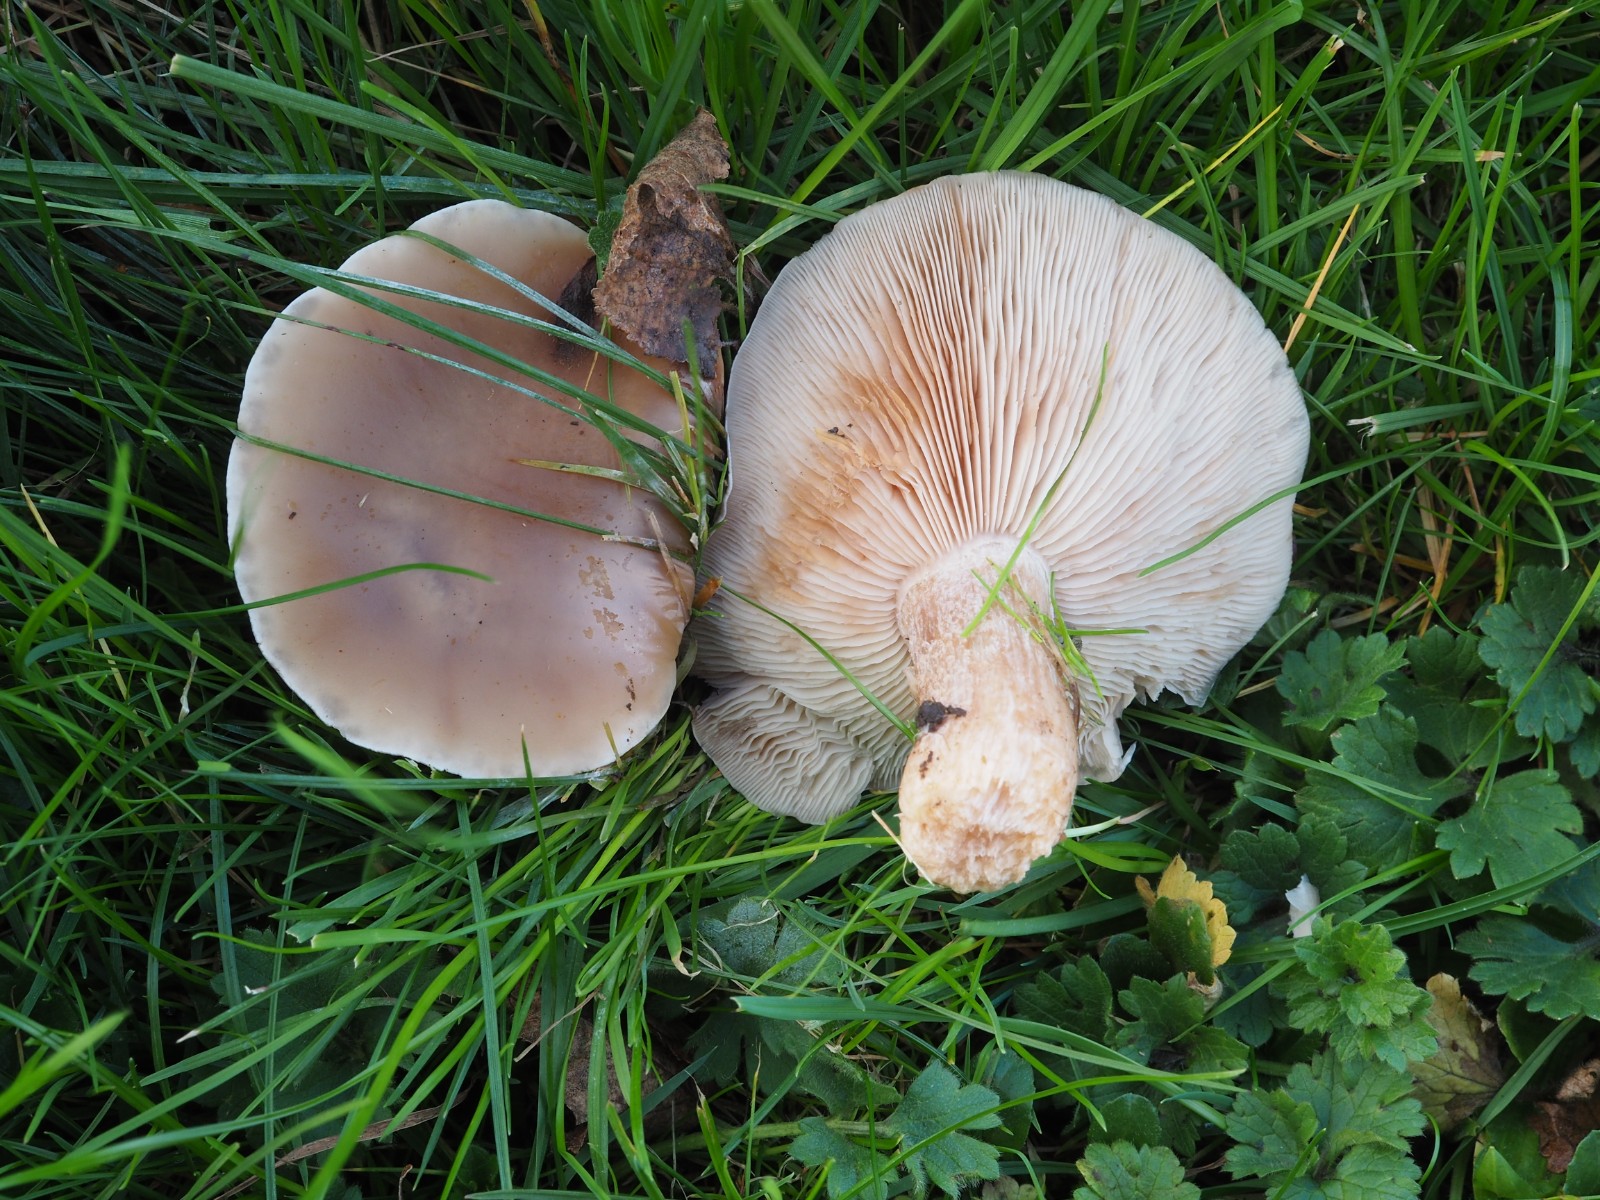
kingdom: Fungi
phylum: Basidiomycota
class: Agaricomycetes
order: Agaricales
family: Tricholomataceae
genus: Lepista
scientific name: Lepista personata
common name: bleg hekseringshat
